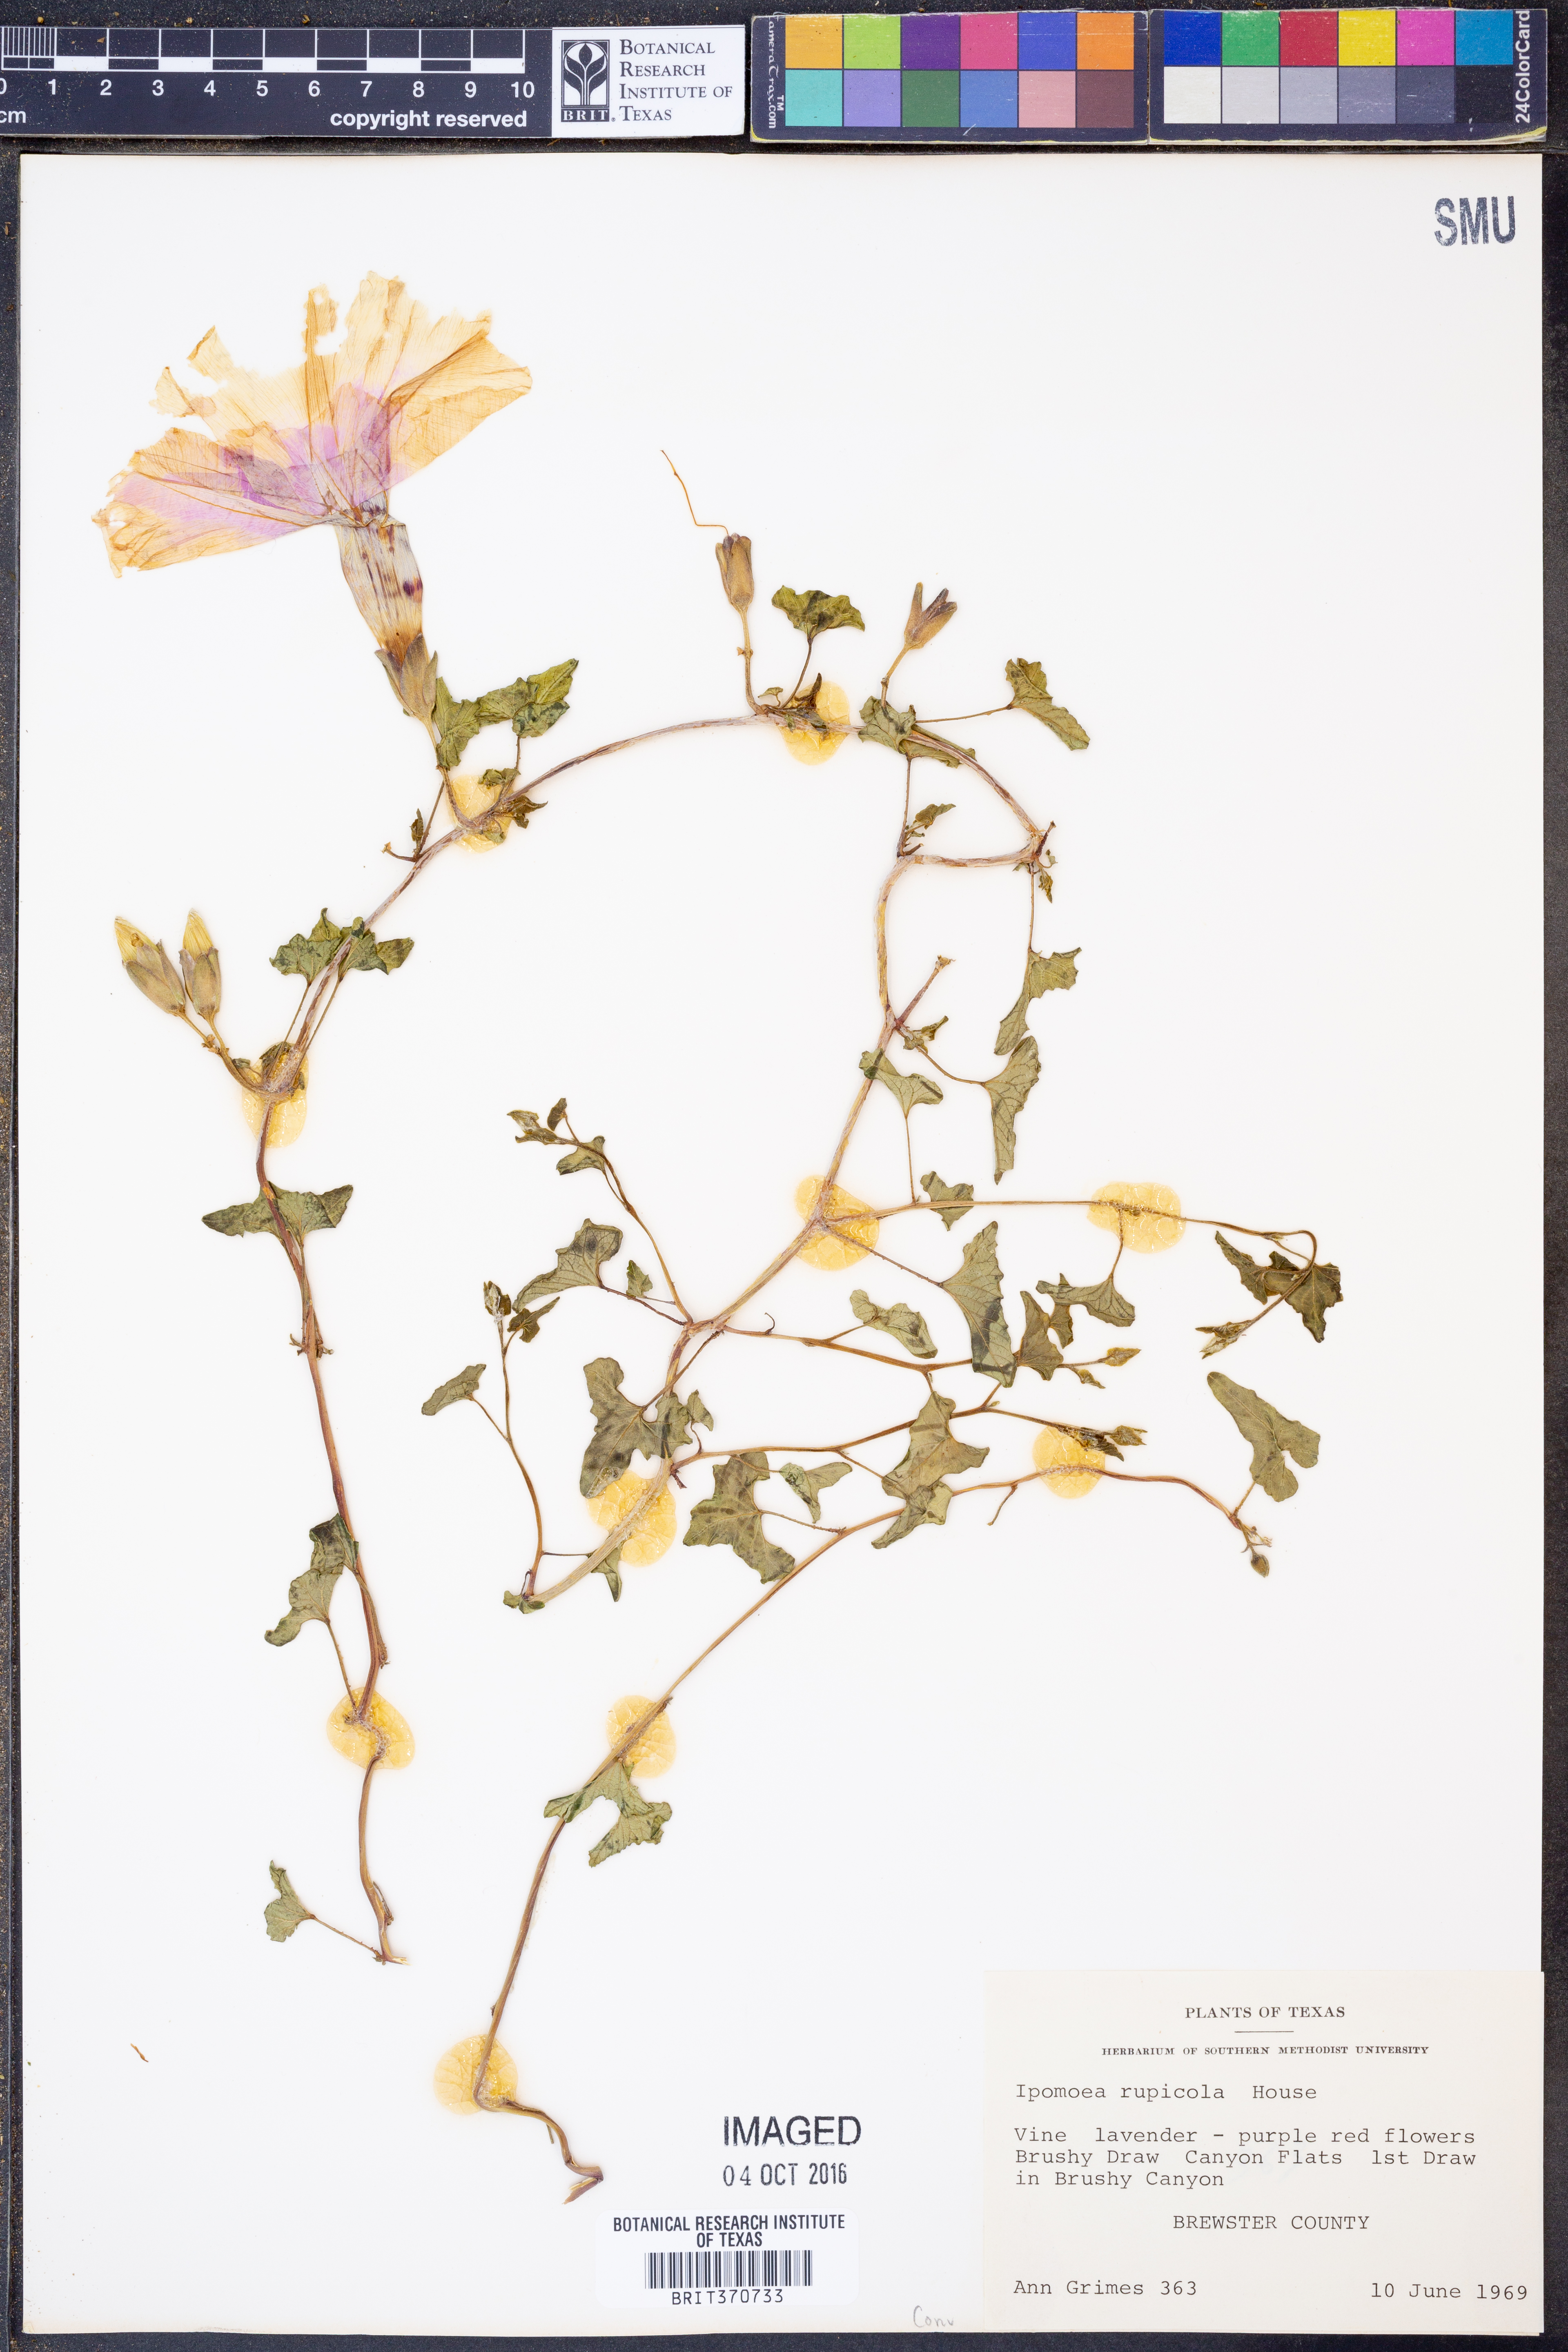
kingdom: Plantae
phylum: Tracheophyta
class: Magnoliopsida
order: Solanales
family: Convolvulaceae
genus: Ipomoea
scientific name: Ipomoea rupicola
